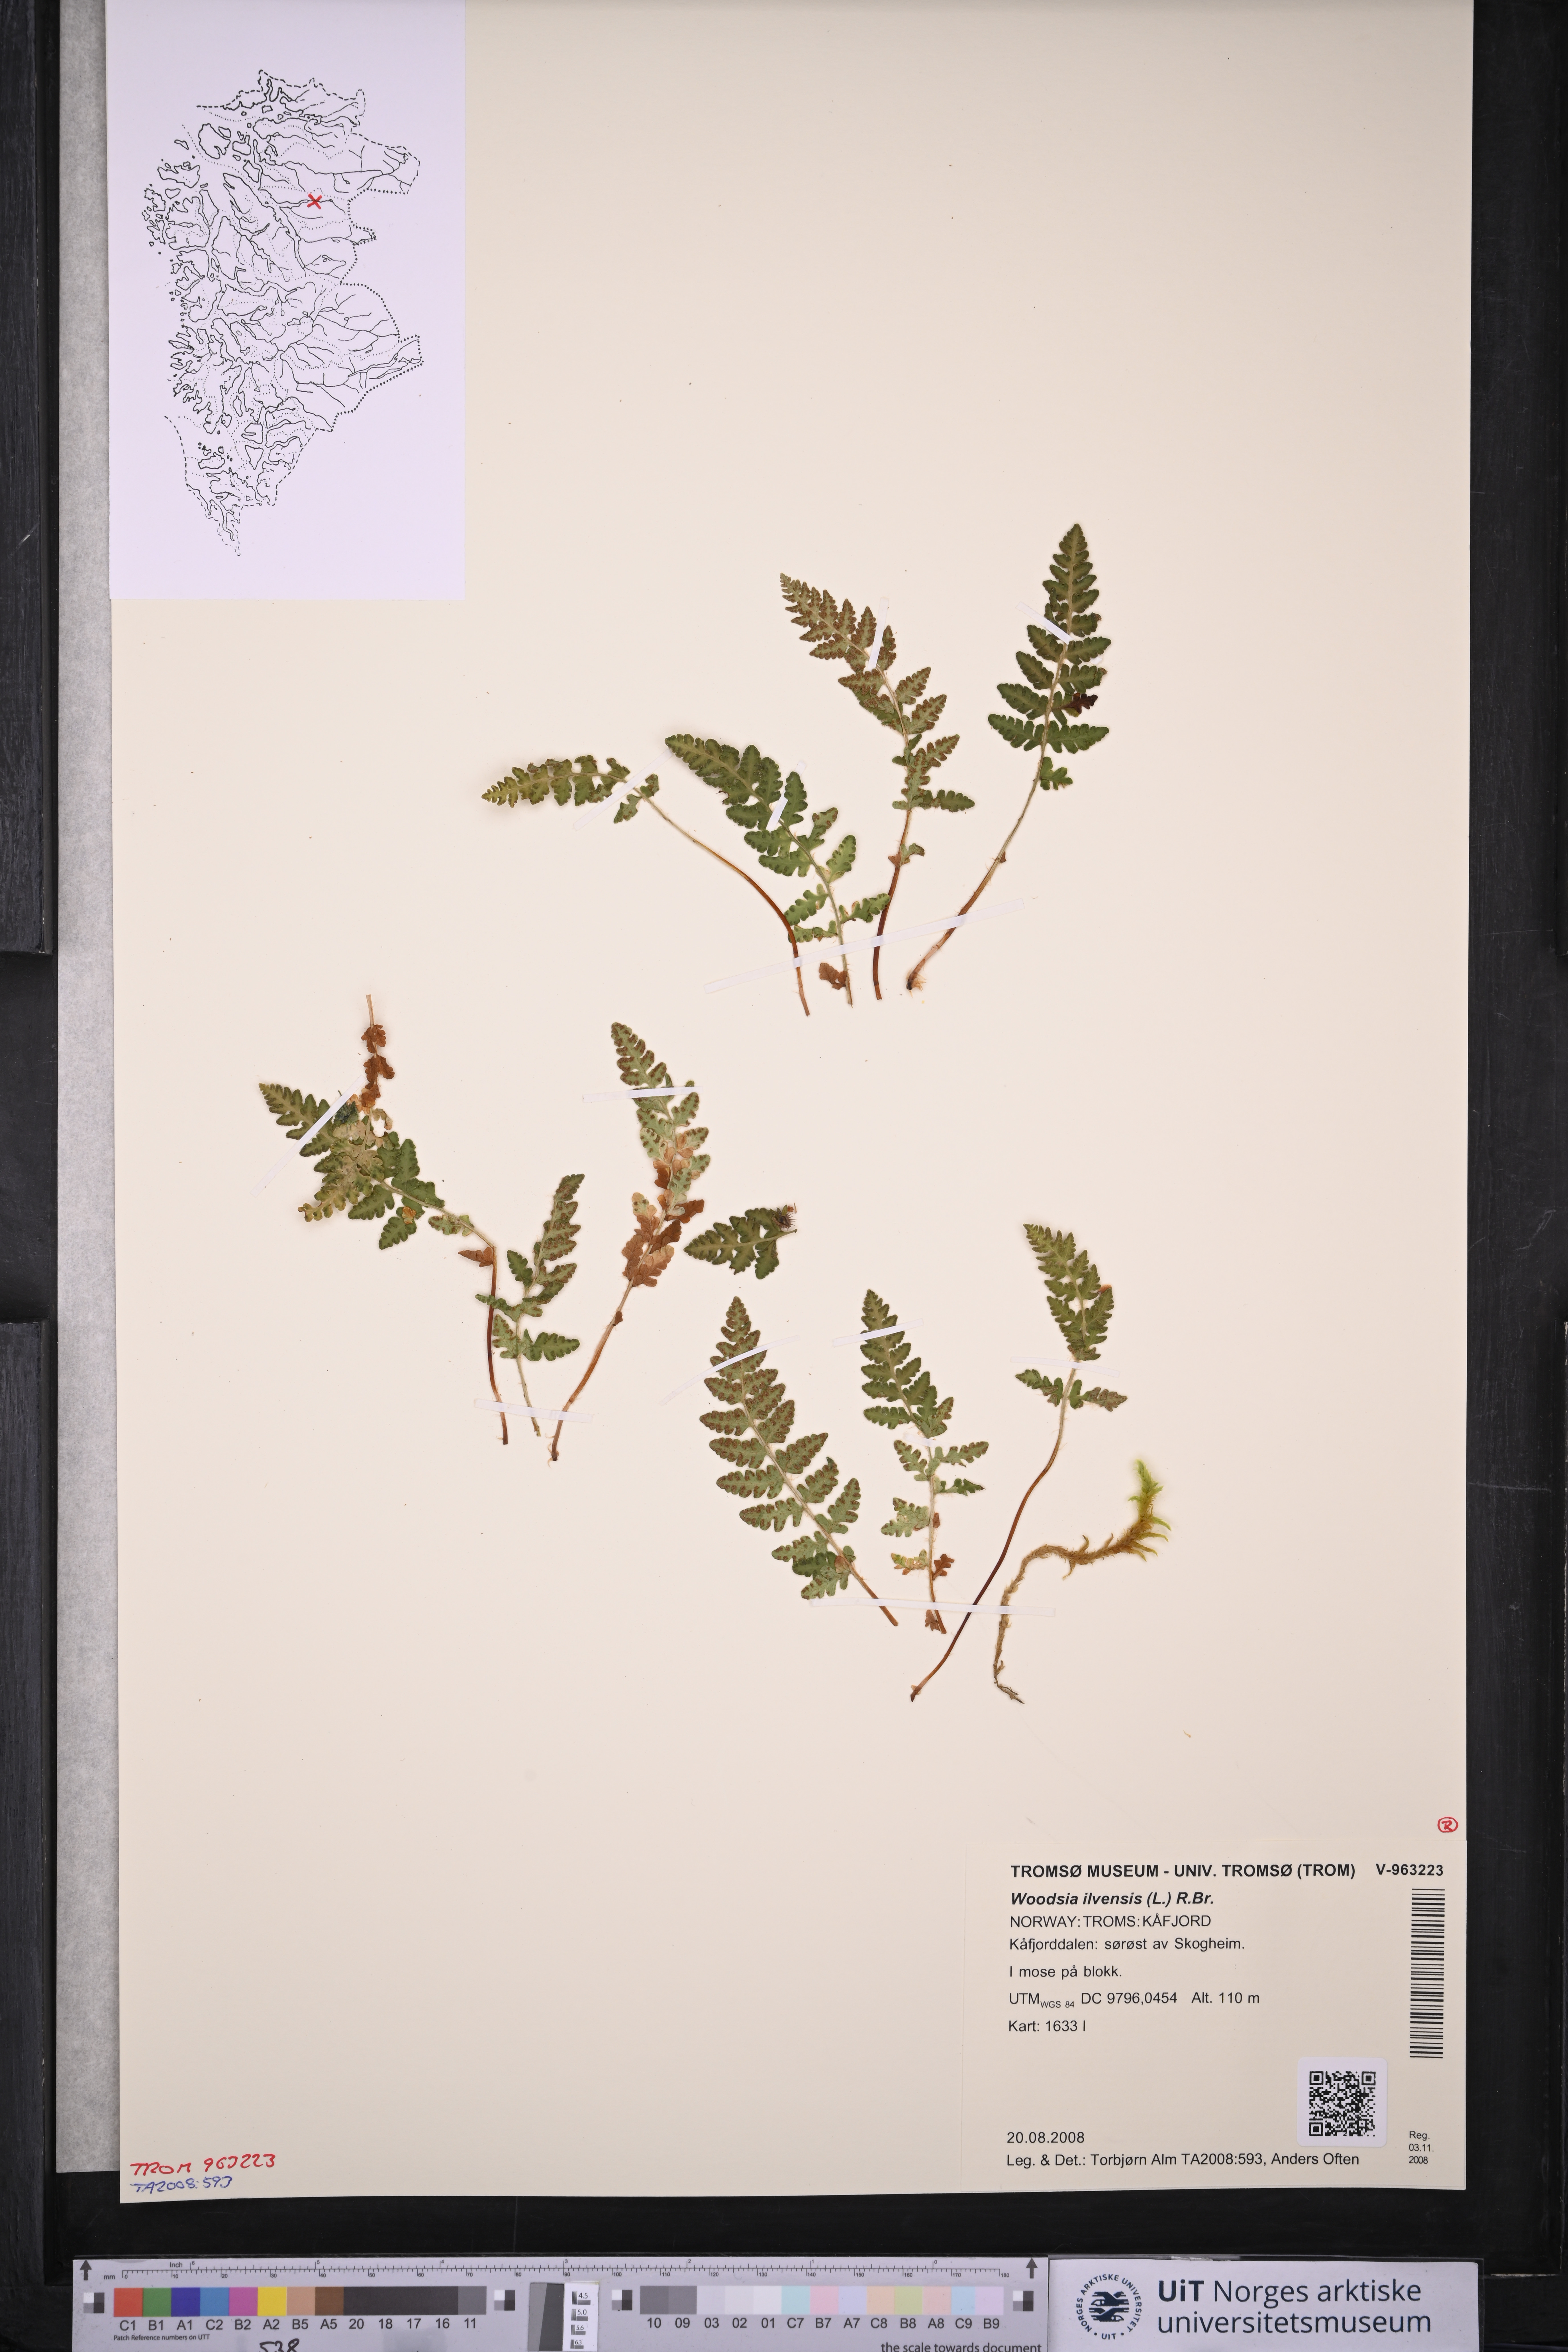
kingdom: Plantae
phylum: Tracheophyta
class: Polypodiopsida
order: Polypodiales
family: Woodsiaceae
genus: Woodsia
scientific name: Woodsia ilvensis
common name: Fragrant woodsia
